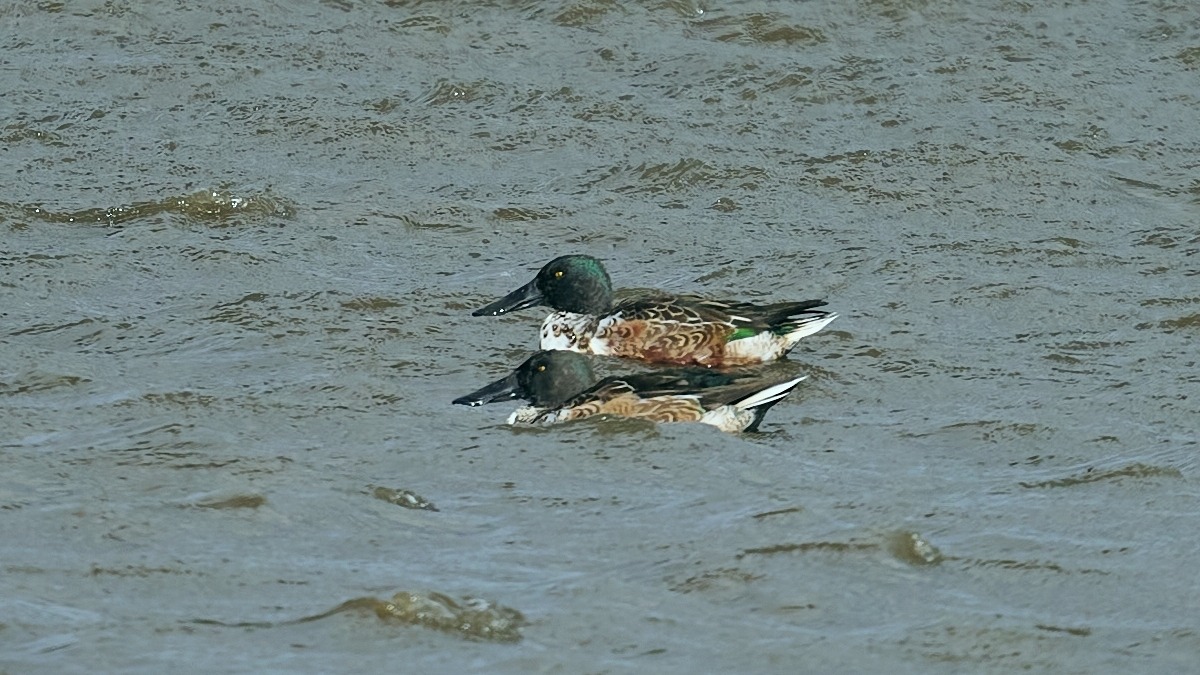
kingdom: Animalia
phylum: Chordata
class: Aves
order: Anseriformes
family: Anatidae
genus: Spatula
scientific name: Spatula clypeata
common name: Skeand
